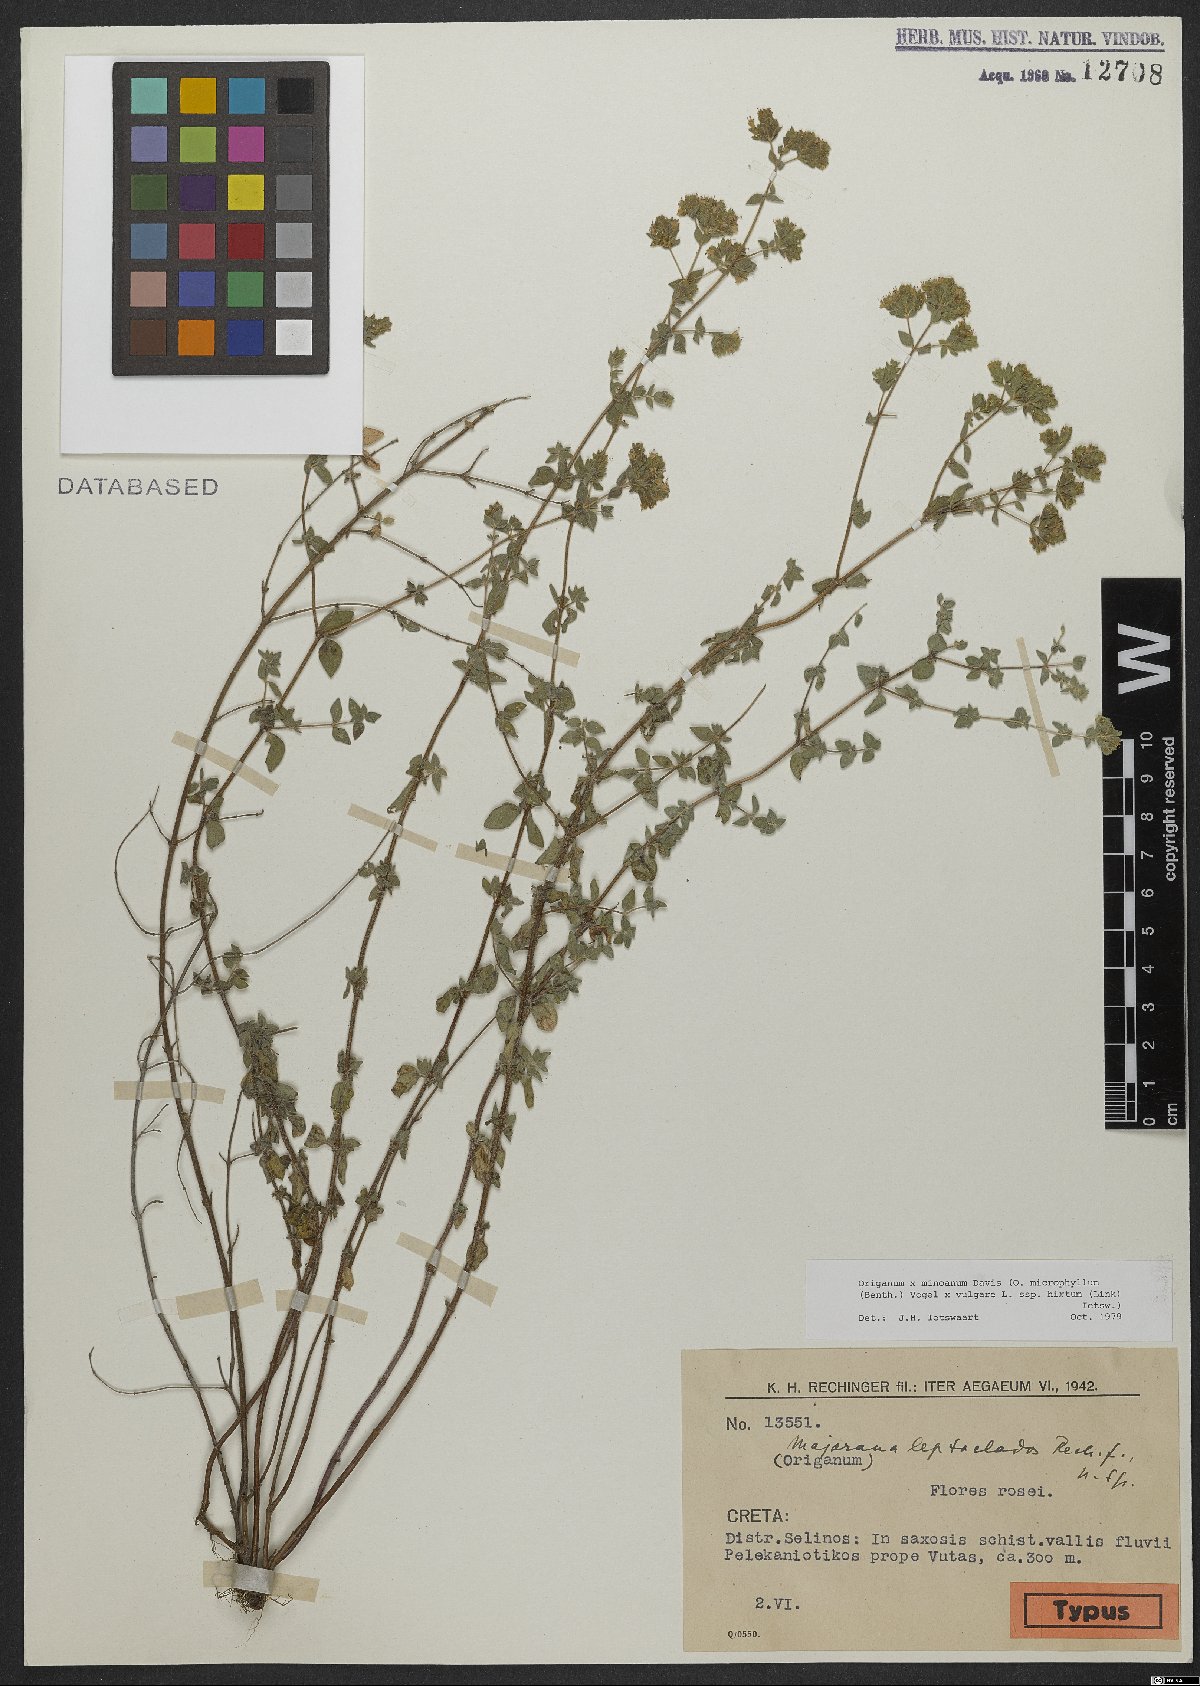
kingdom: Plantae
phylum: Tracheophyta
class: Magnoliopsida
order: Lamiales
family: Lamiaceae
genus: Origanum
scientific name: Origanum minoanum
